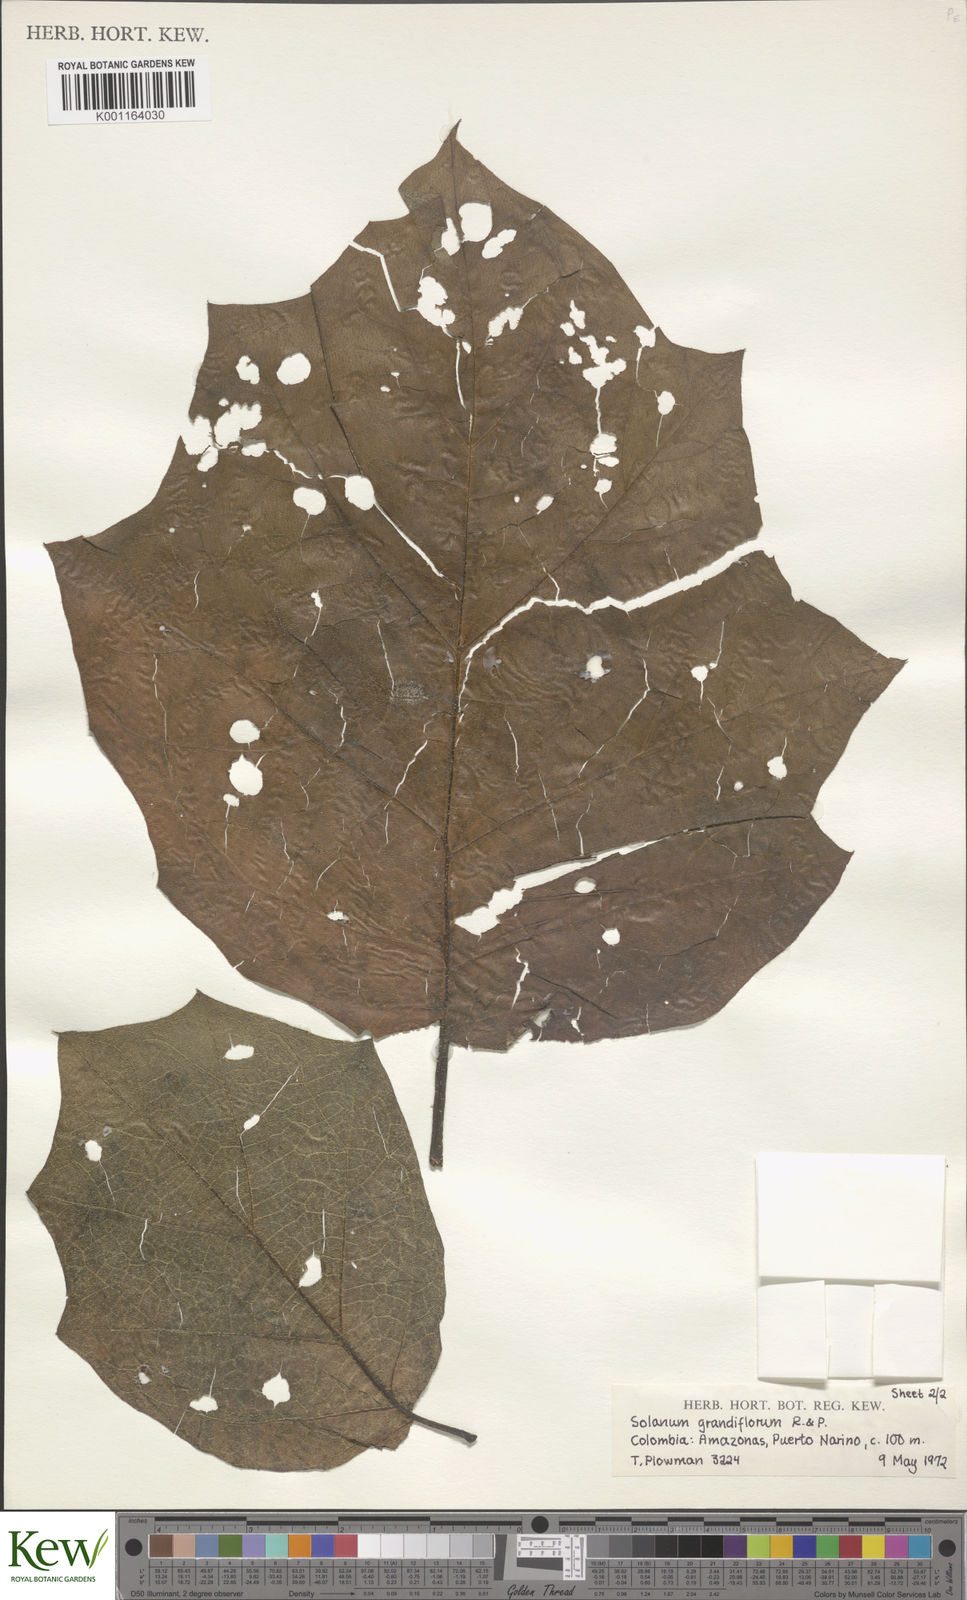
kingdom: Plantae
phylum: Tracheophyta
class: Magnoliopsida
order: Solanales
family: Solanaceae
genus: Solanum
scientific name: Solanum grandiflorum
